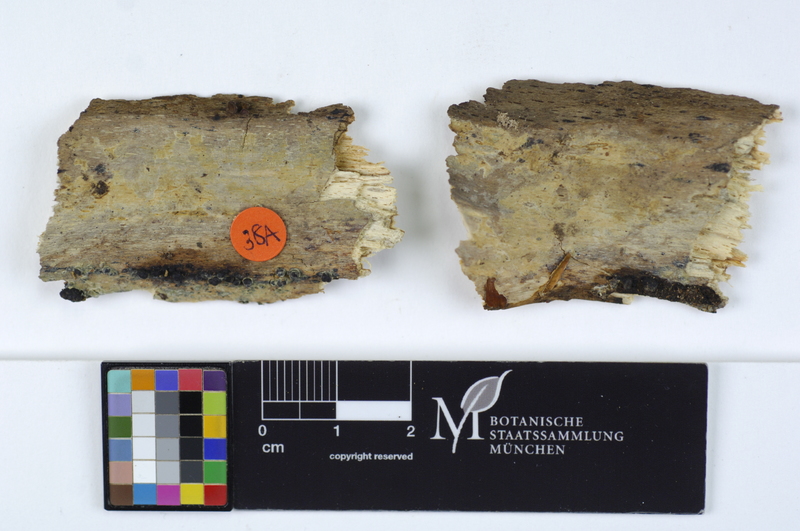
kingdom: Fungi
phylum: Basidiomycota
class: Agaricomycetes
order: Russulales
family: Stereaceae
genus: Gloeocystidiellum
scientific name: Gloeocystidiellum luridum
